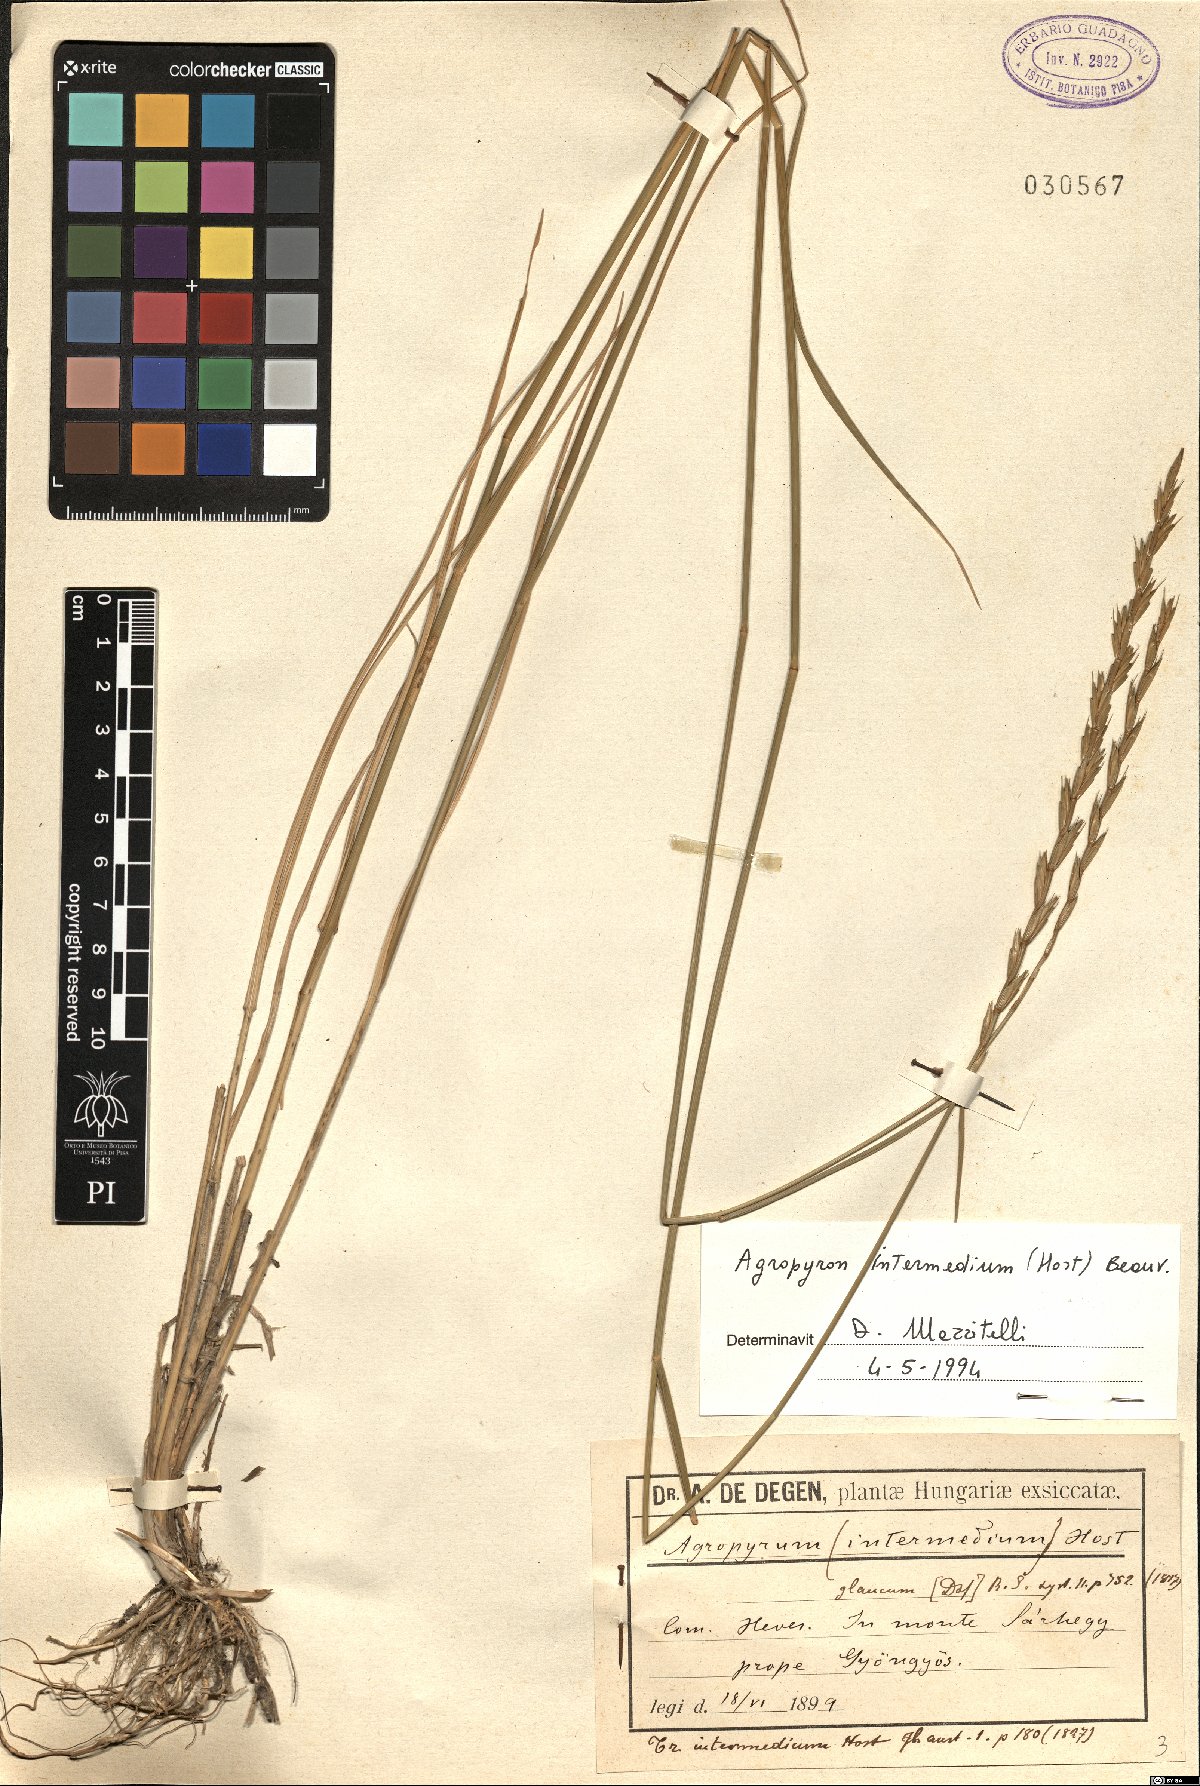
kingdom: Plantae
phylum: Tracheophyta
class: Liliopsida
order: Poales
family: Poaceae
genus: Thinopyrum
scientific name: Thinopyrum intermedium
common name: Intermediate wheatgrass
